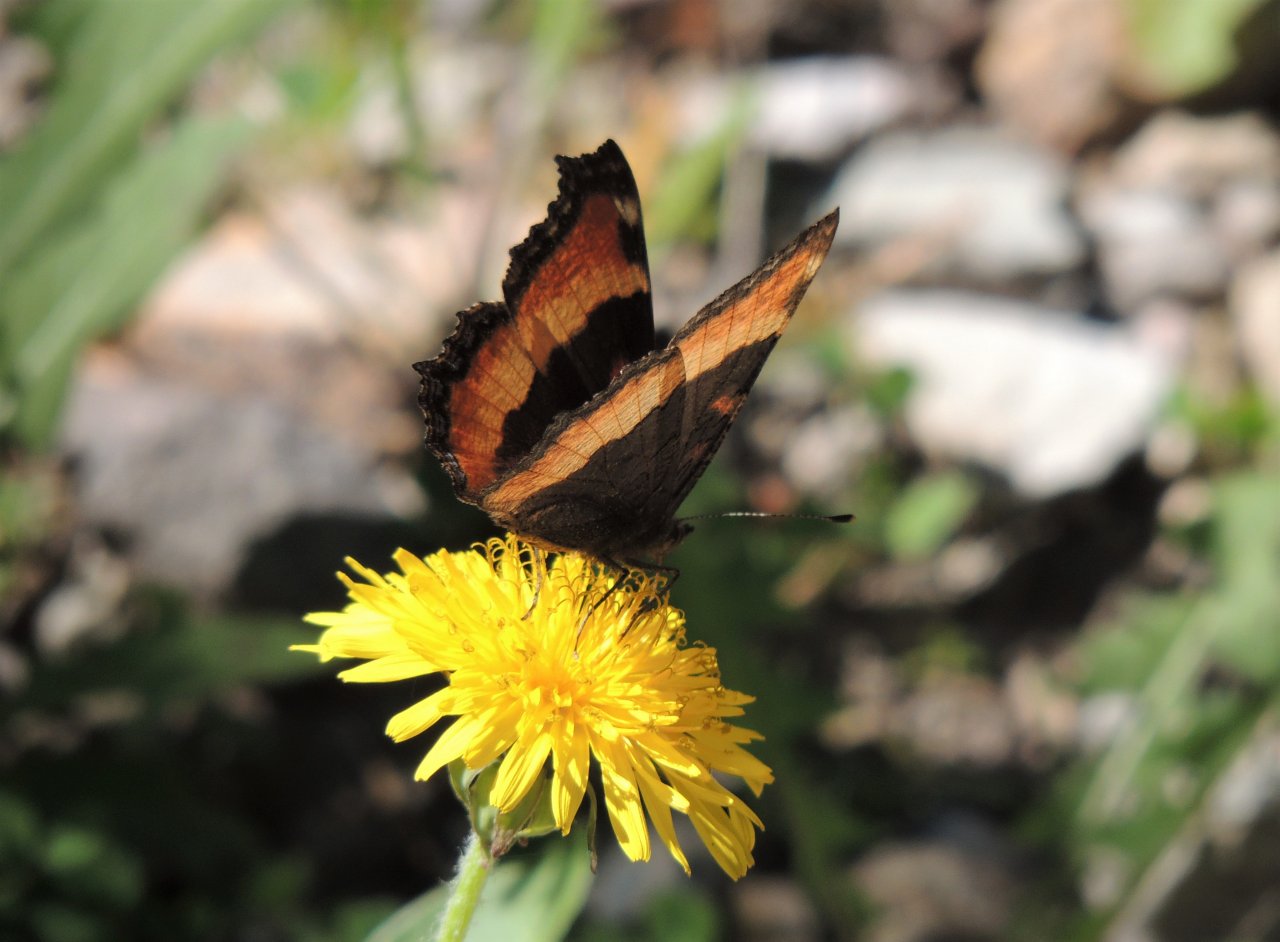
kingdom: Animalia
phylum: Arthropoda
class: Insecta
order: Lepidoptera
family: Nymphalidae
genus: Aglais
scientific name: Aglais milberti
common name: Milbert's Tortoiseshell
